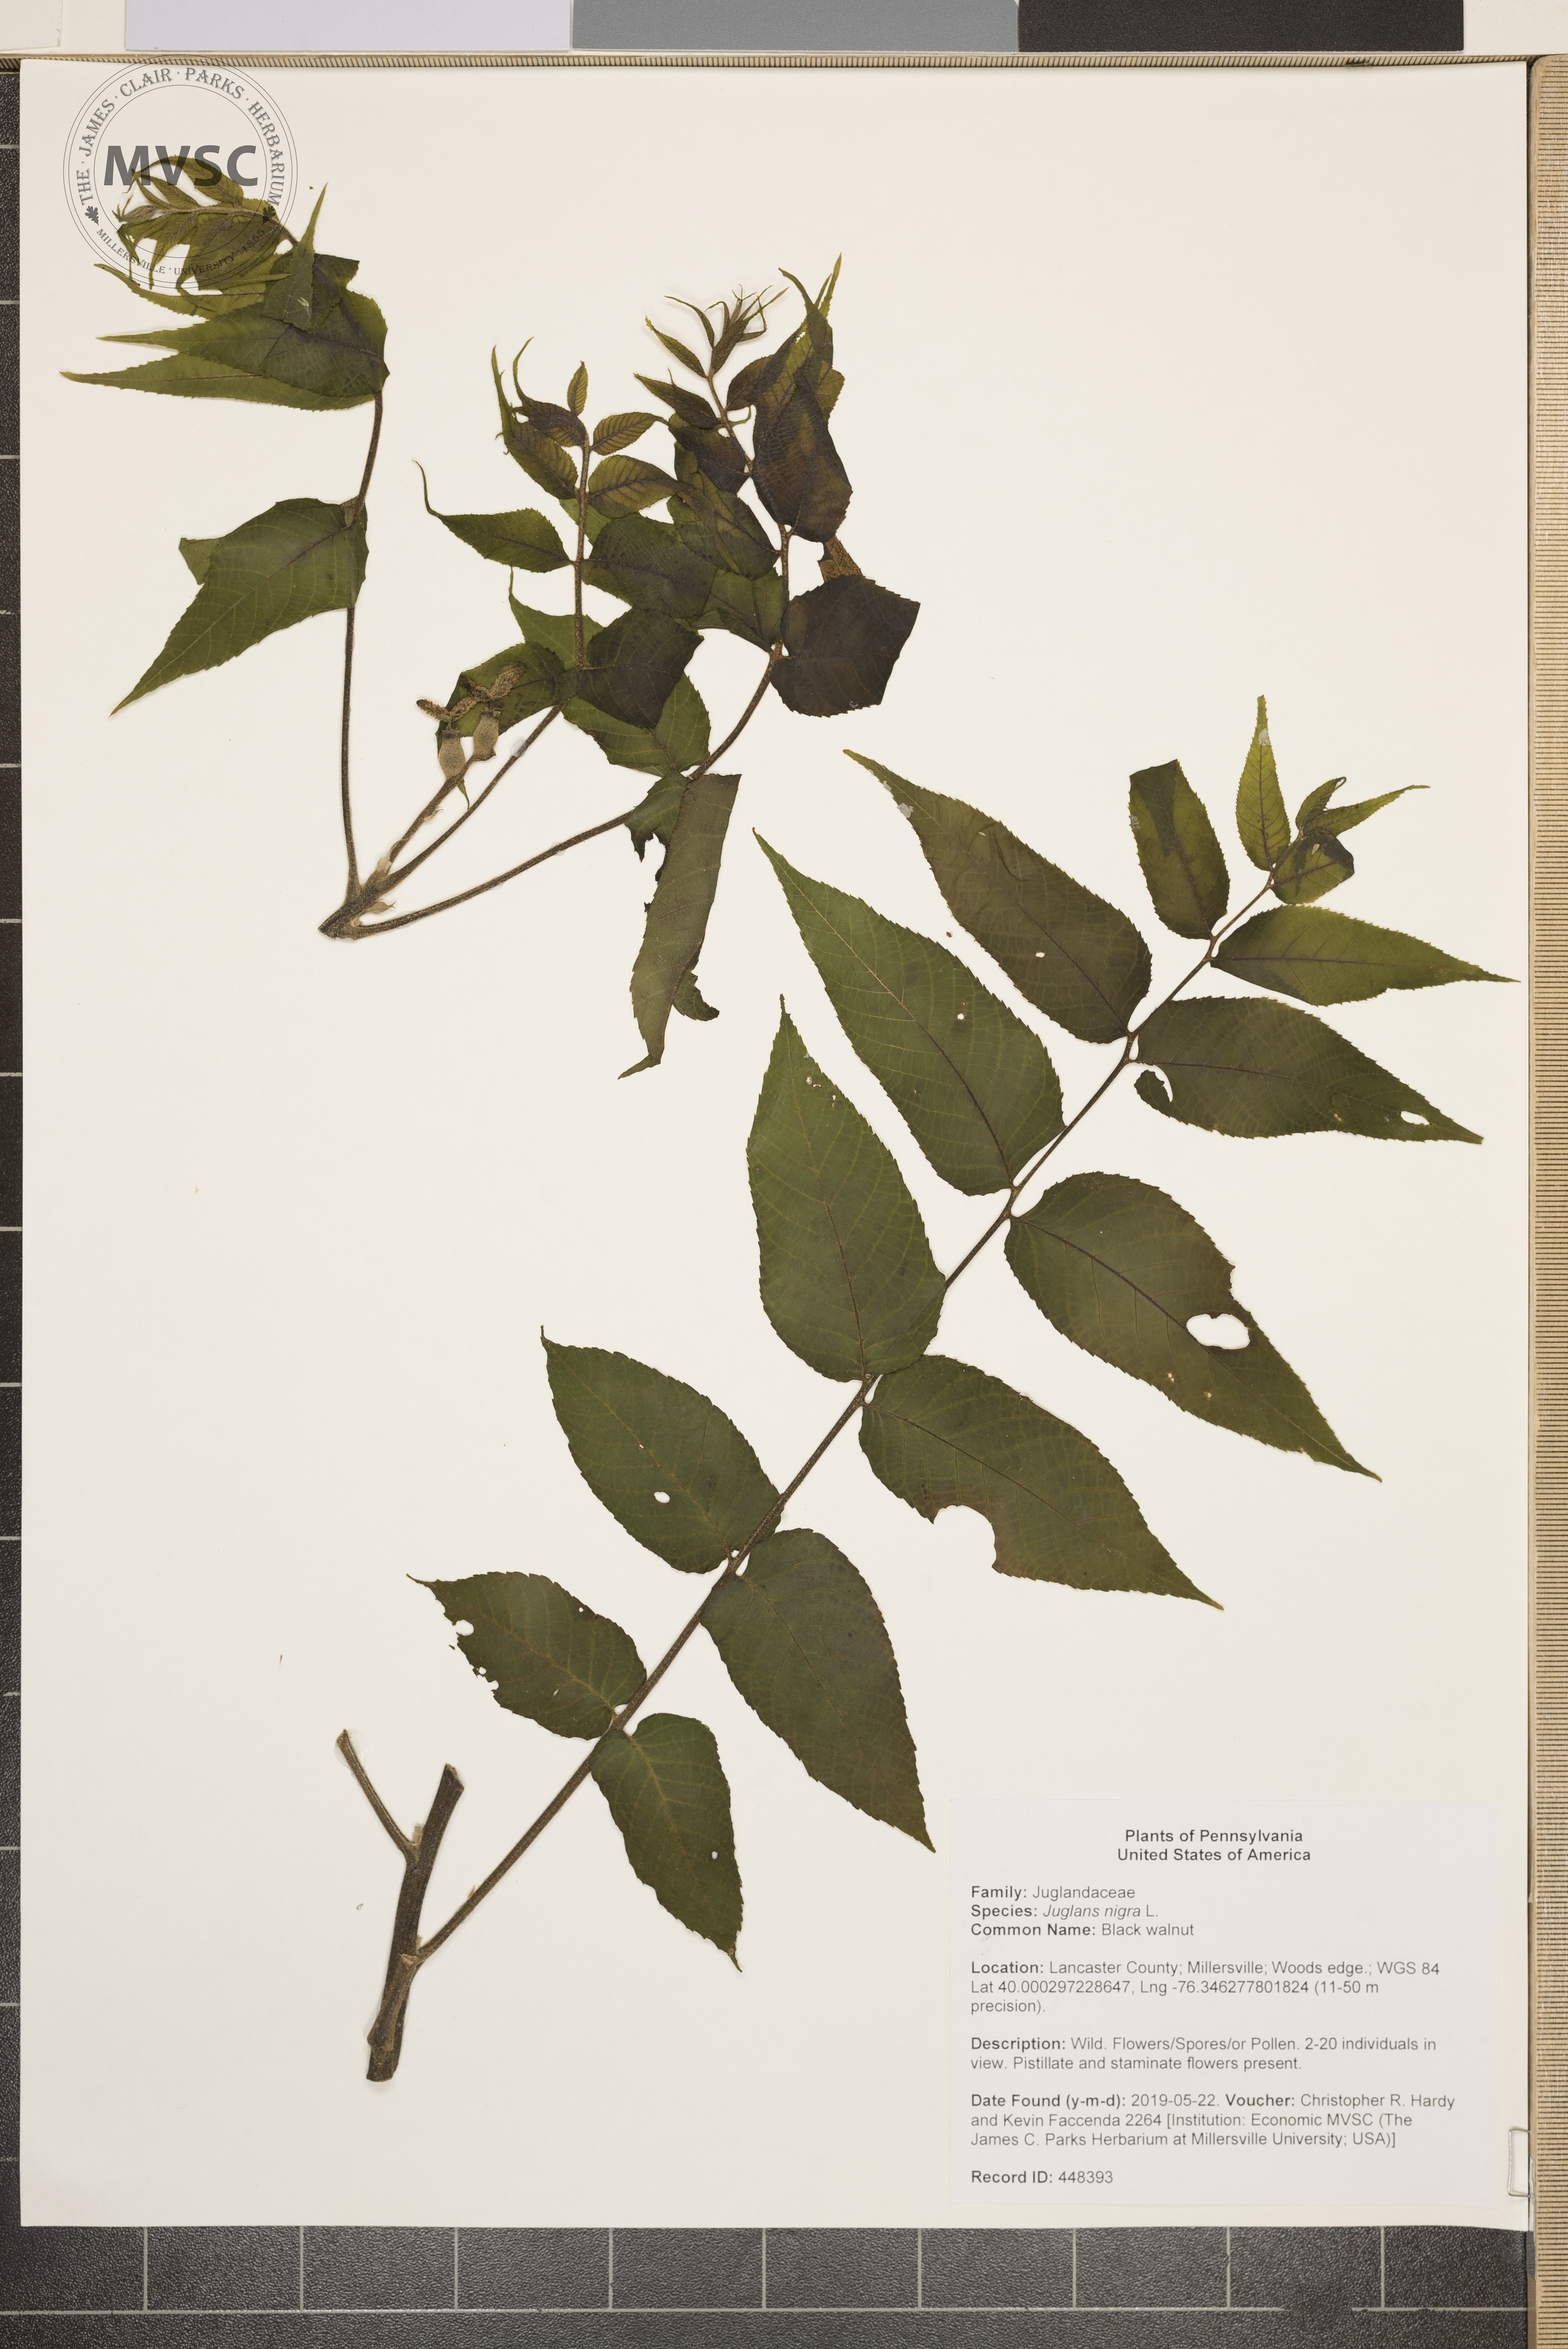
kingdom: Plantae
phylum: Tracheophyta
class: Magnoliopsida
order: Fagales
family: Juglandaceae
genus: Juglans
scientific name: Juglans nigra
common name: Black walnut
